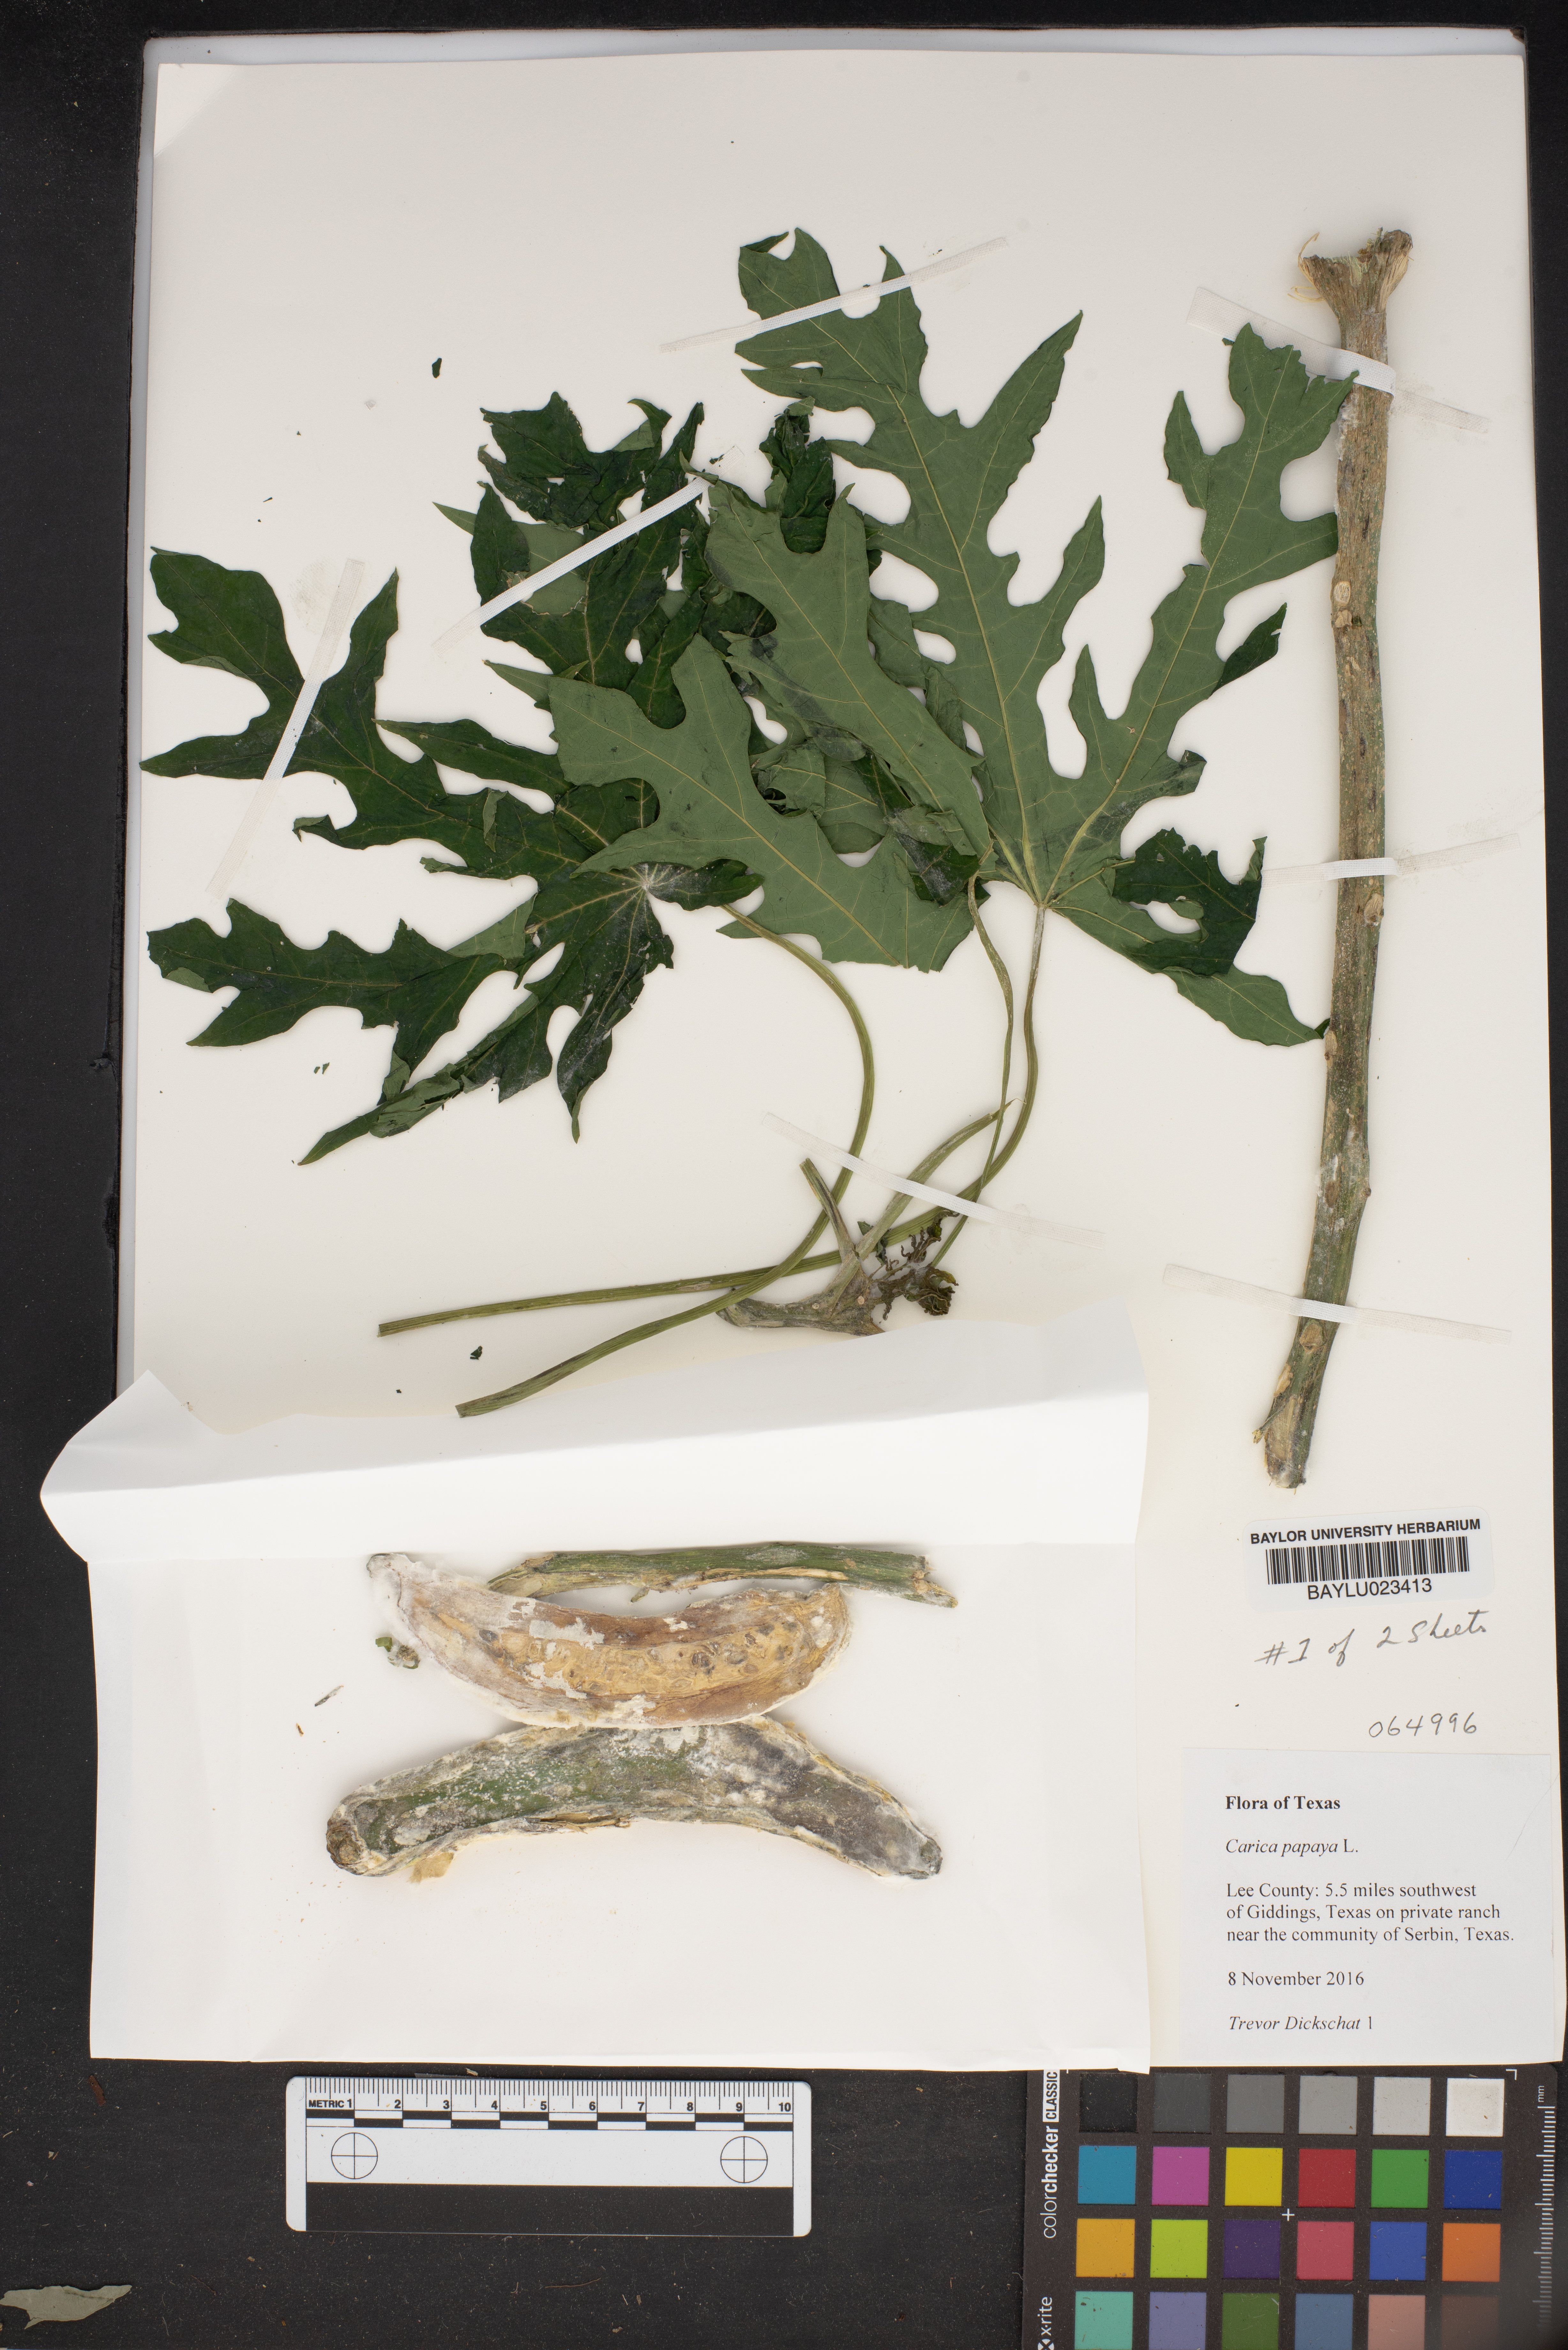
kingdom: Plantae
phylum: Tracheophyta
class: Magnoliopsida
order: Brassicales
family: Caricaceae
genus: Carica
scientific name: Carica papaya
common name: Papaya
